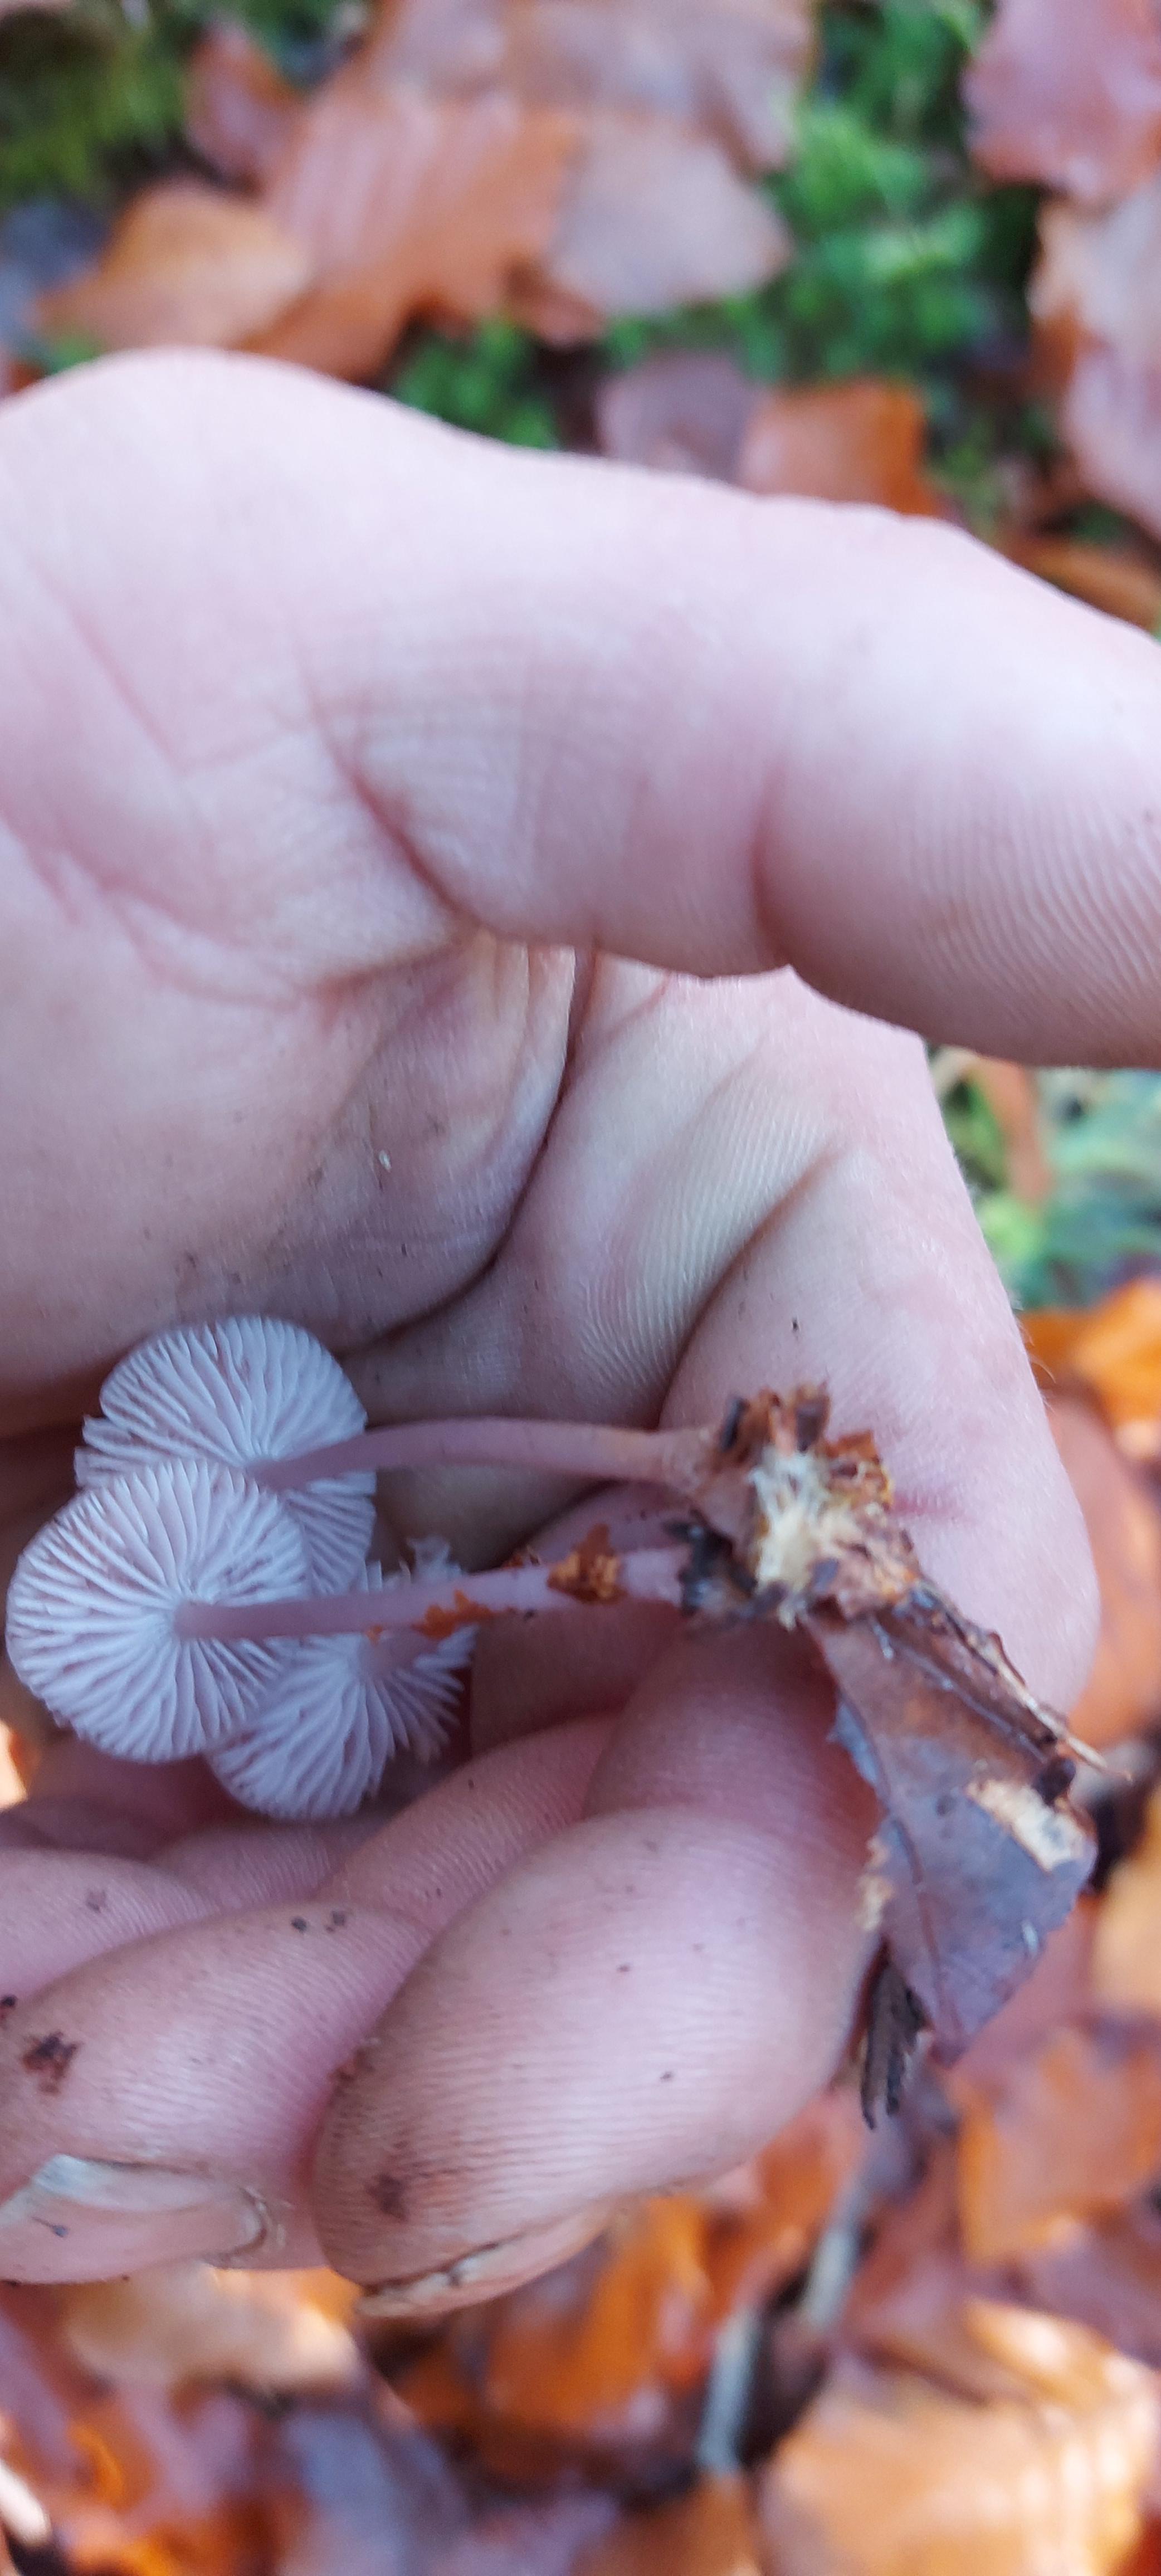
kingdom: Fungi
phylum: Basidiomycota
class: Agaricomycetes
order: Agaricales
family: Mycenaceae
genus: Mycena
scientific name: Mycena rosea
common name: rosa huesvamp
